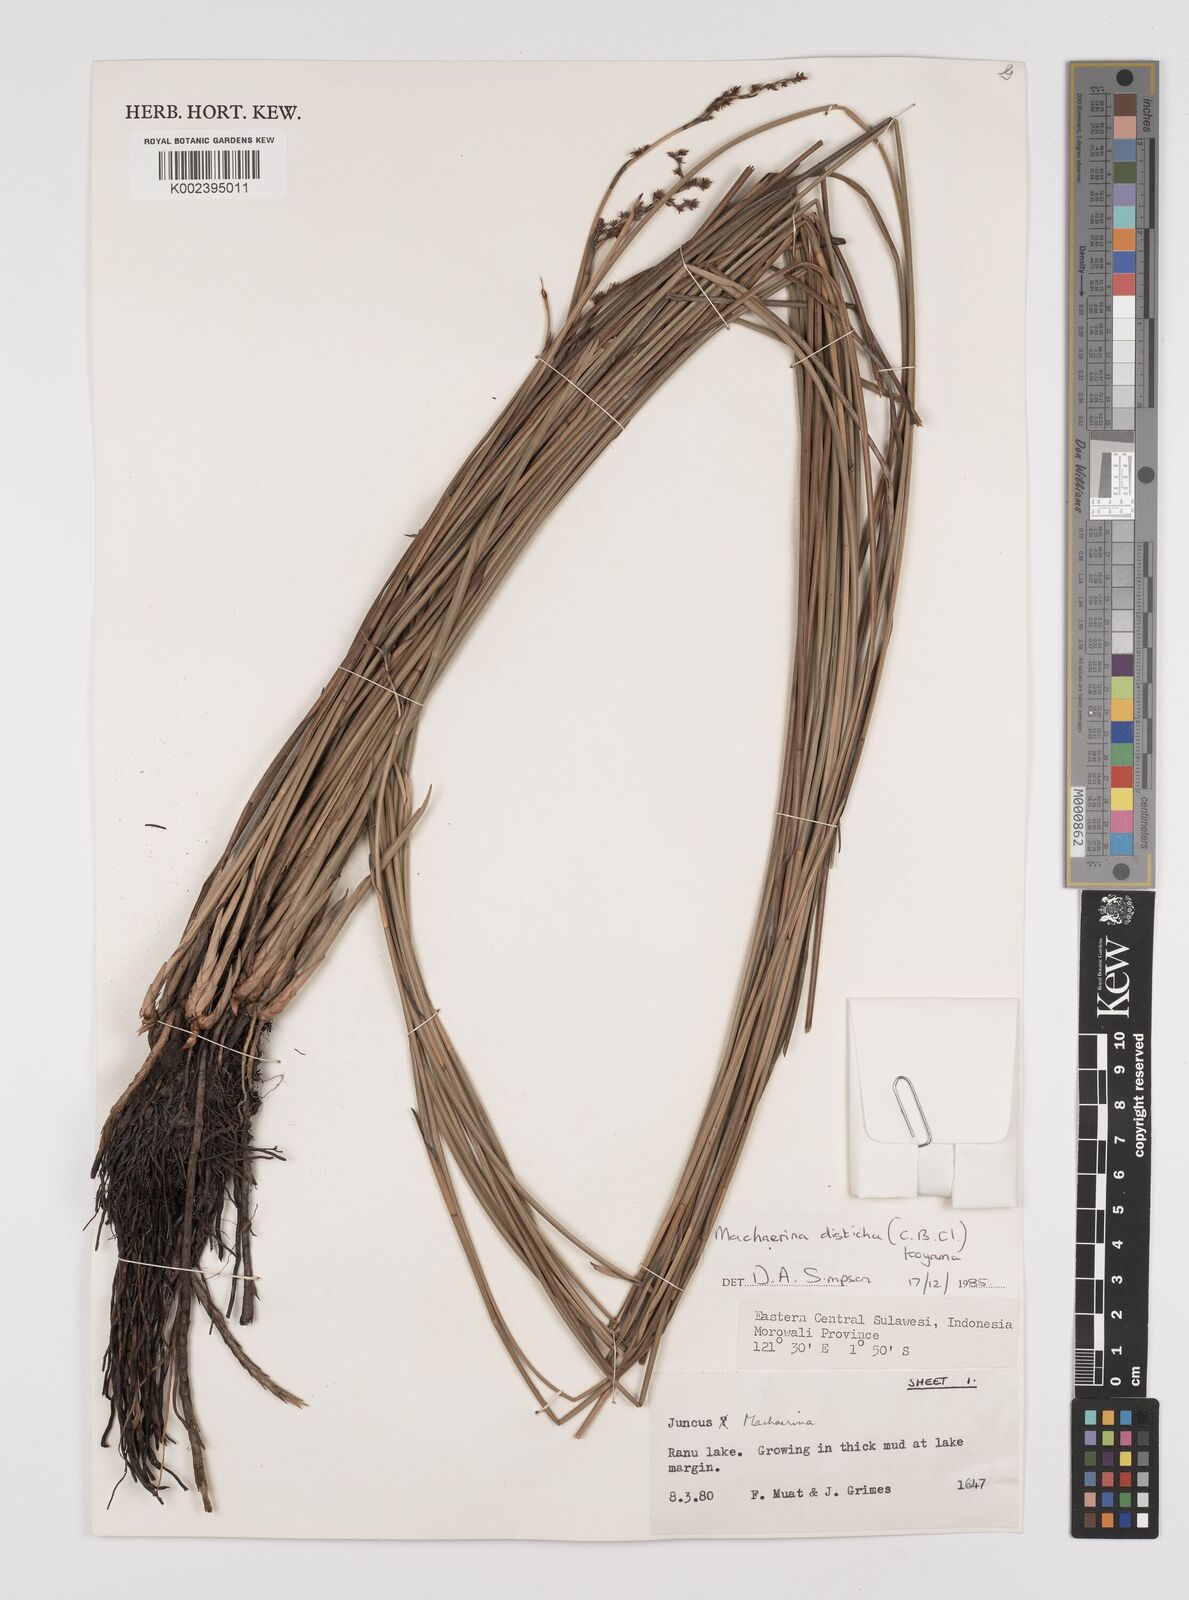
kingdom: Plantae
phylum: Tracheophyta
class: Liliopsida
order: Poales
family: Cyperaceae
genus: Machaerina
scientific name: Machaerina disticha
